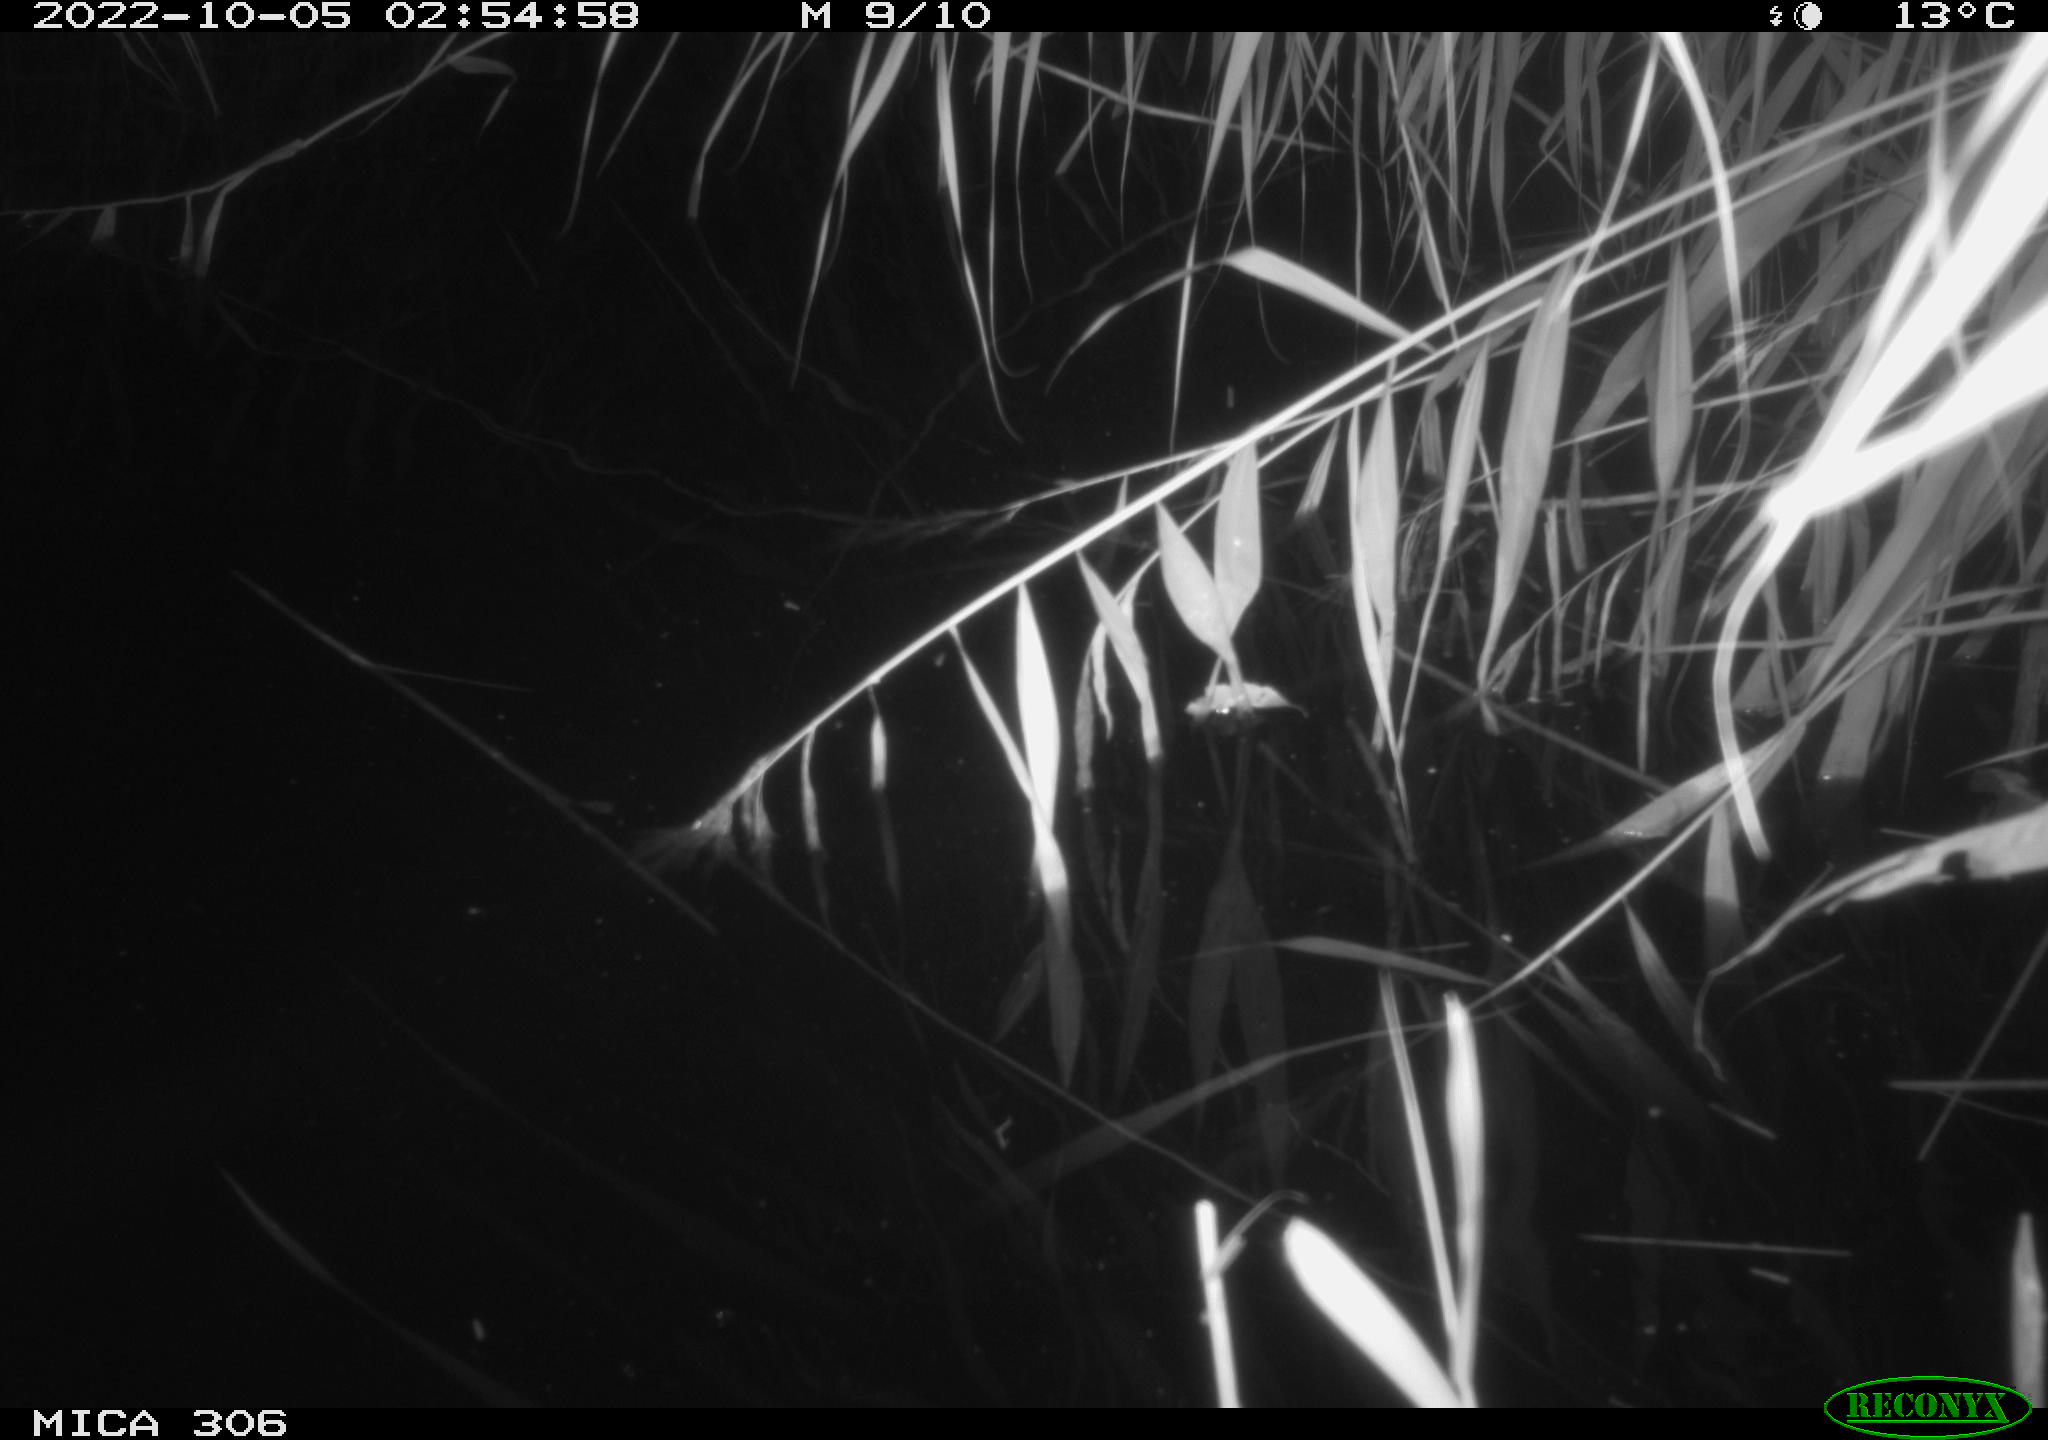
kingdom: Animalia
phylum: Chordata
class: Mammalia
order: Rodentia
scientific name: Rodentia
